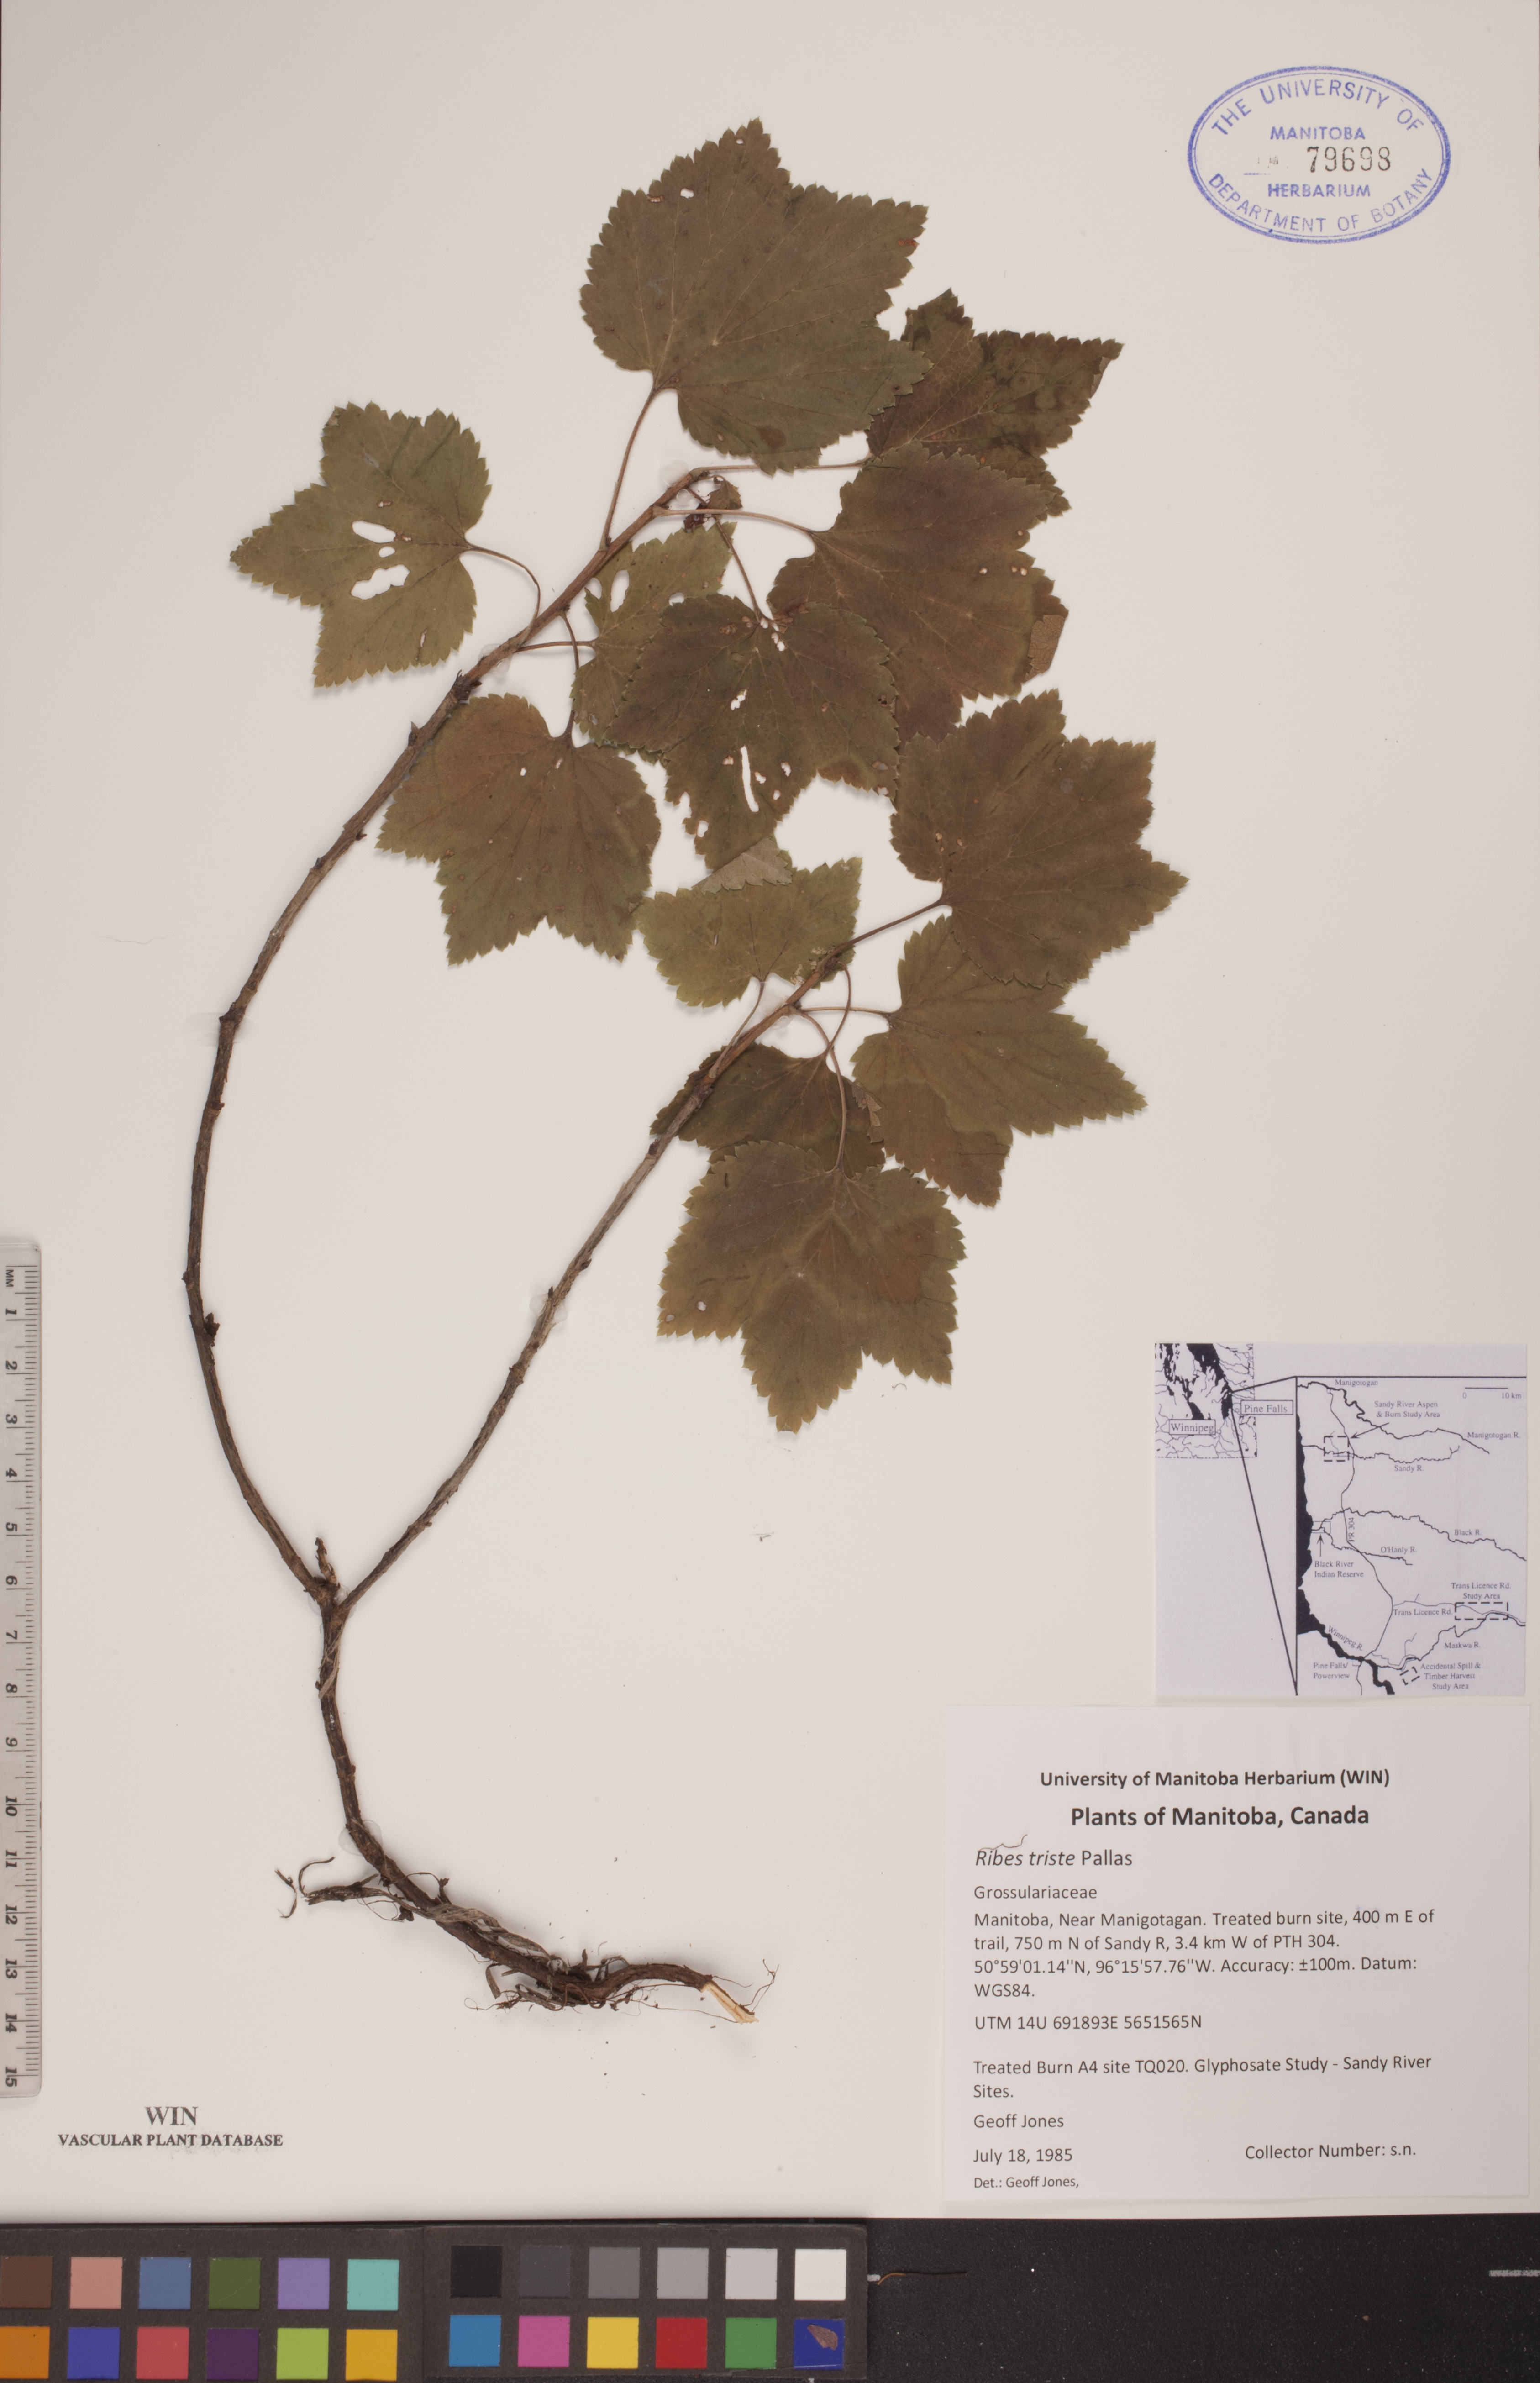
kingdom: Plantae
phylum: Tracheophyta
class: Magnoliopsida
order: Saxifragales
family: Grossulariaceae
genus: Ribes
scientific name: Ribes triste
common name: Swamp red currant
